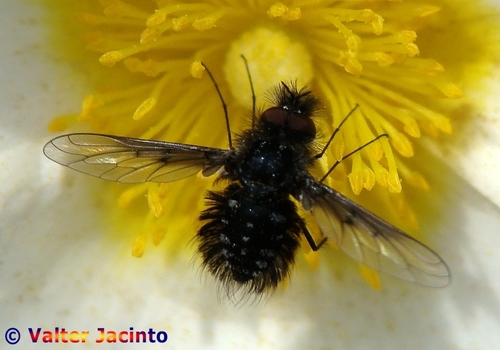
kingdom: Animalia
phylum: Arthropoda
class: Insecta
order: Diptera
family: Bombyliidae
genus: Bombylella
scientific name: Bombylella atra
